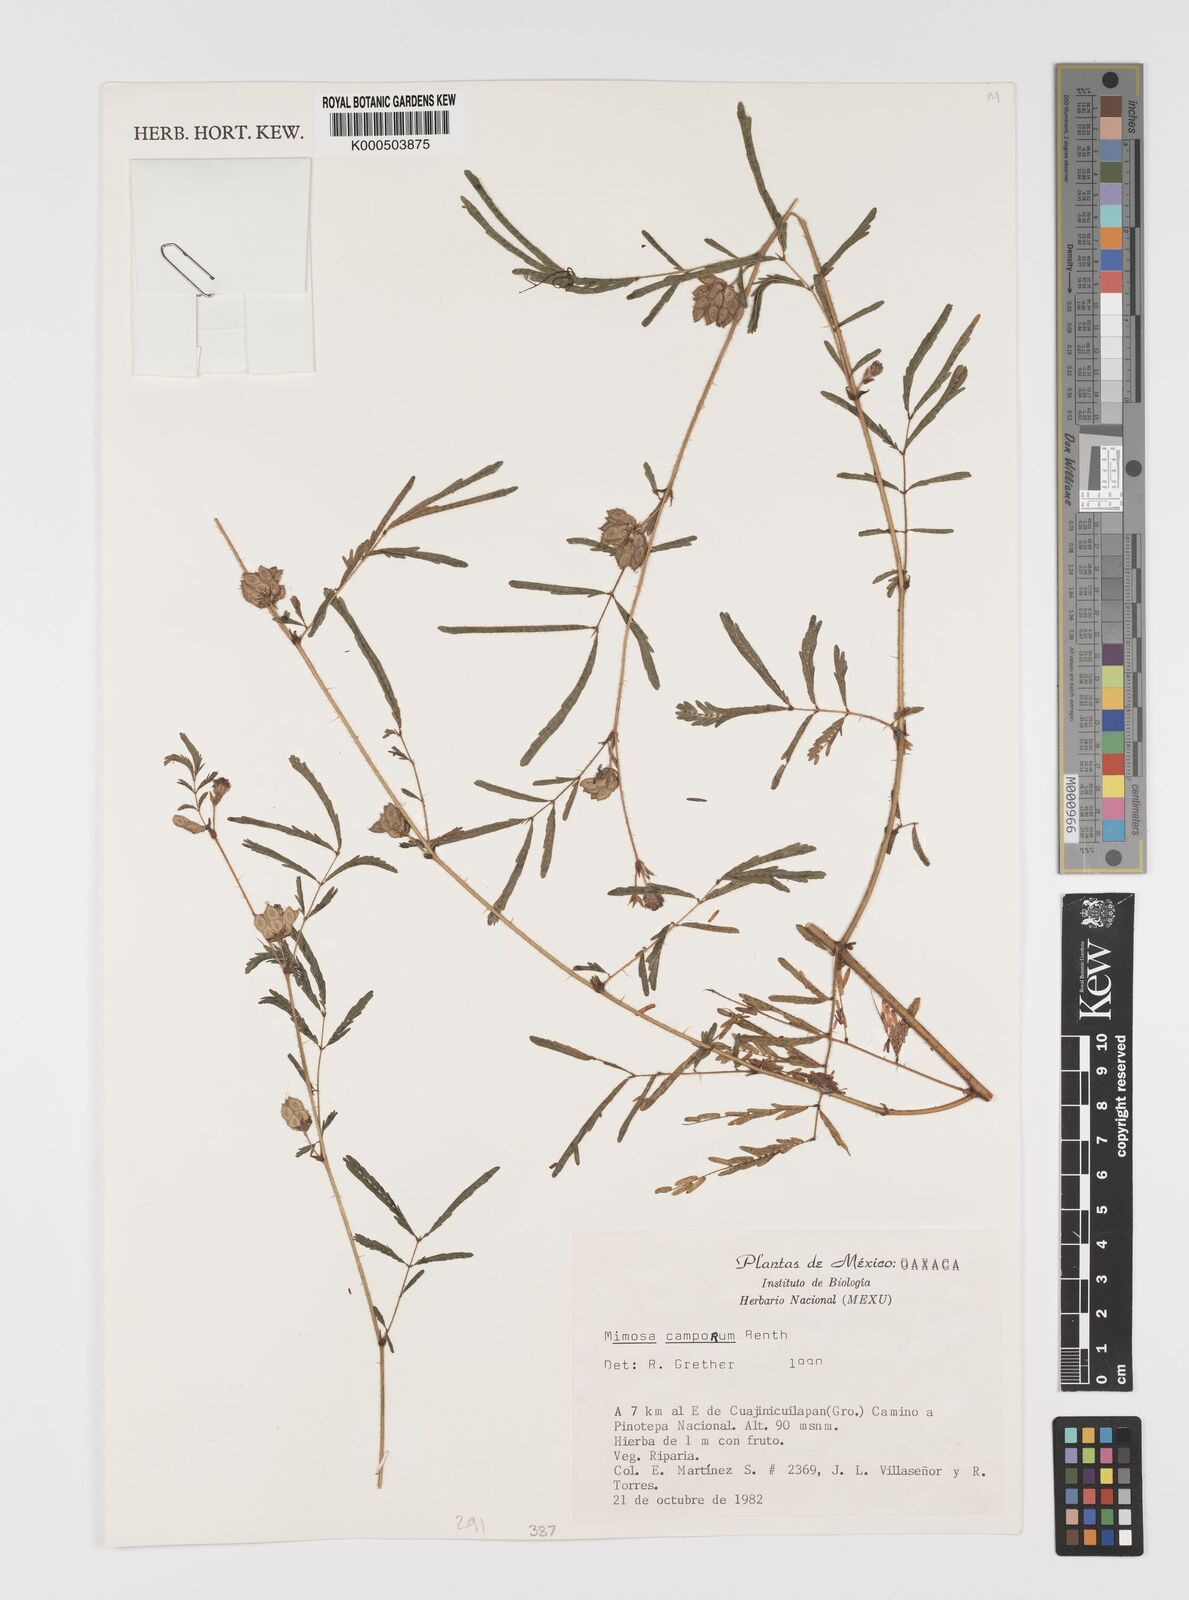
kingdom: Plantae
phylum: Tracheophyta
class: Magnoliopsida
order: Fabales
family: Fabaceae
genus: Mimosa
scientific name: Mimosa camporum
